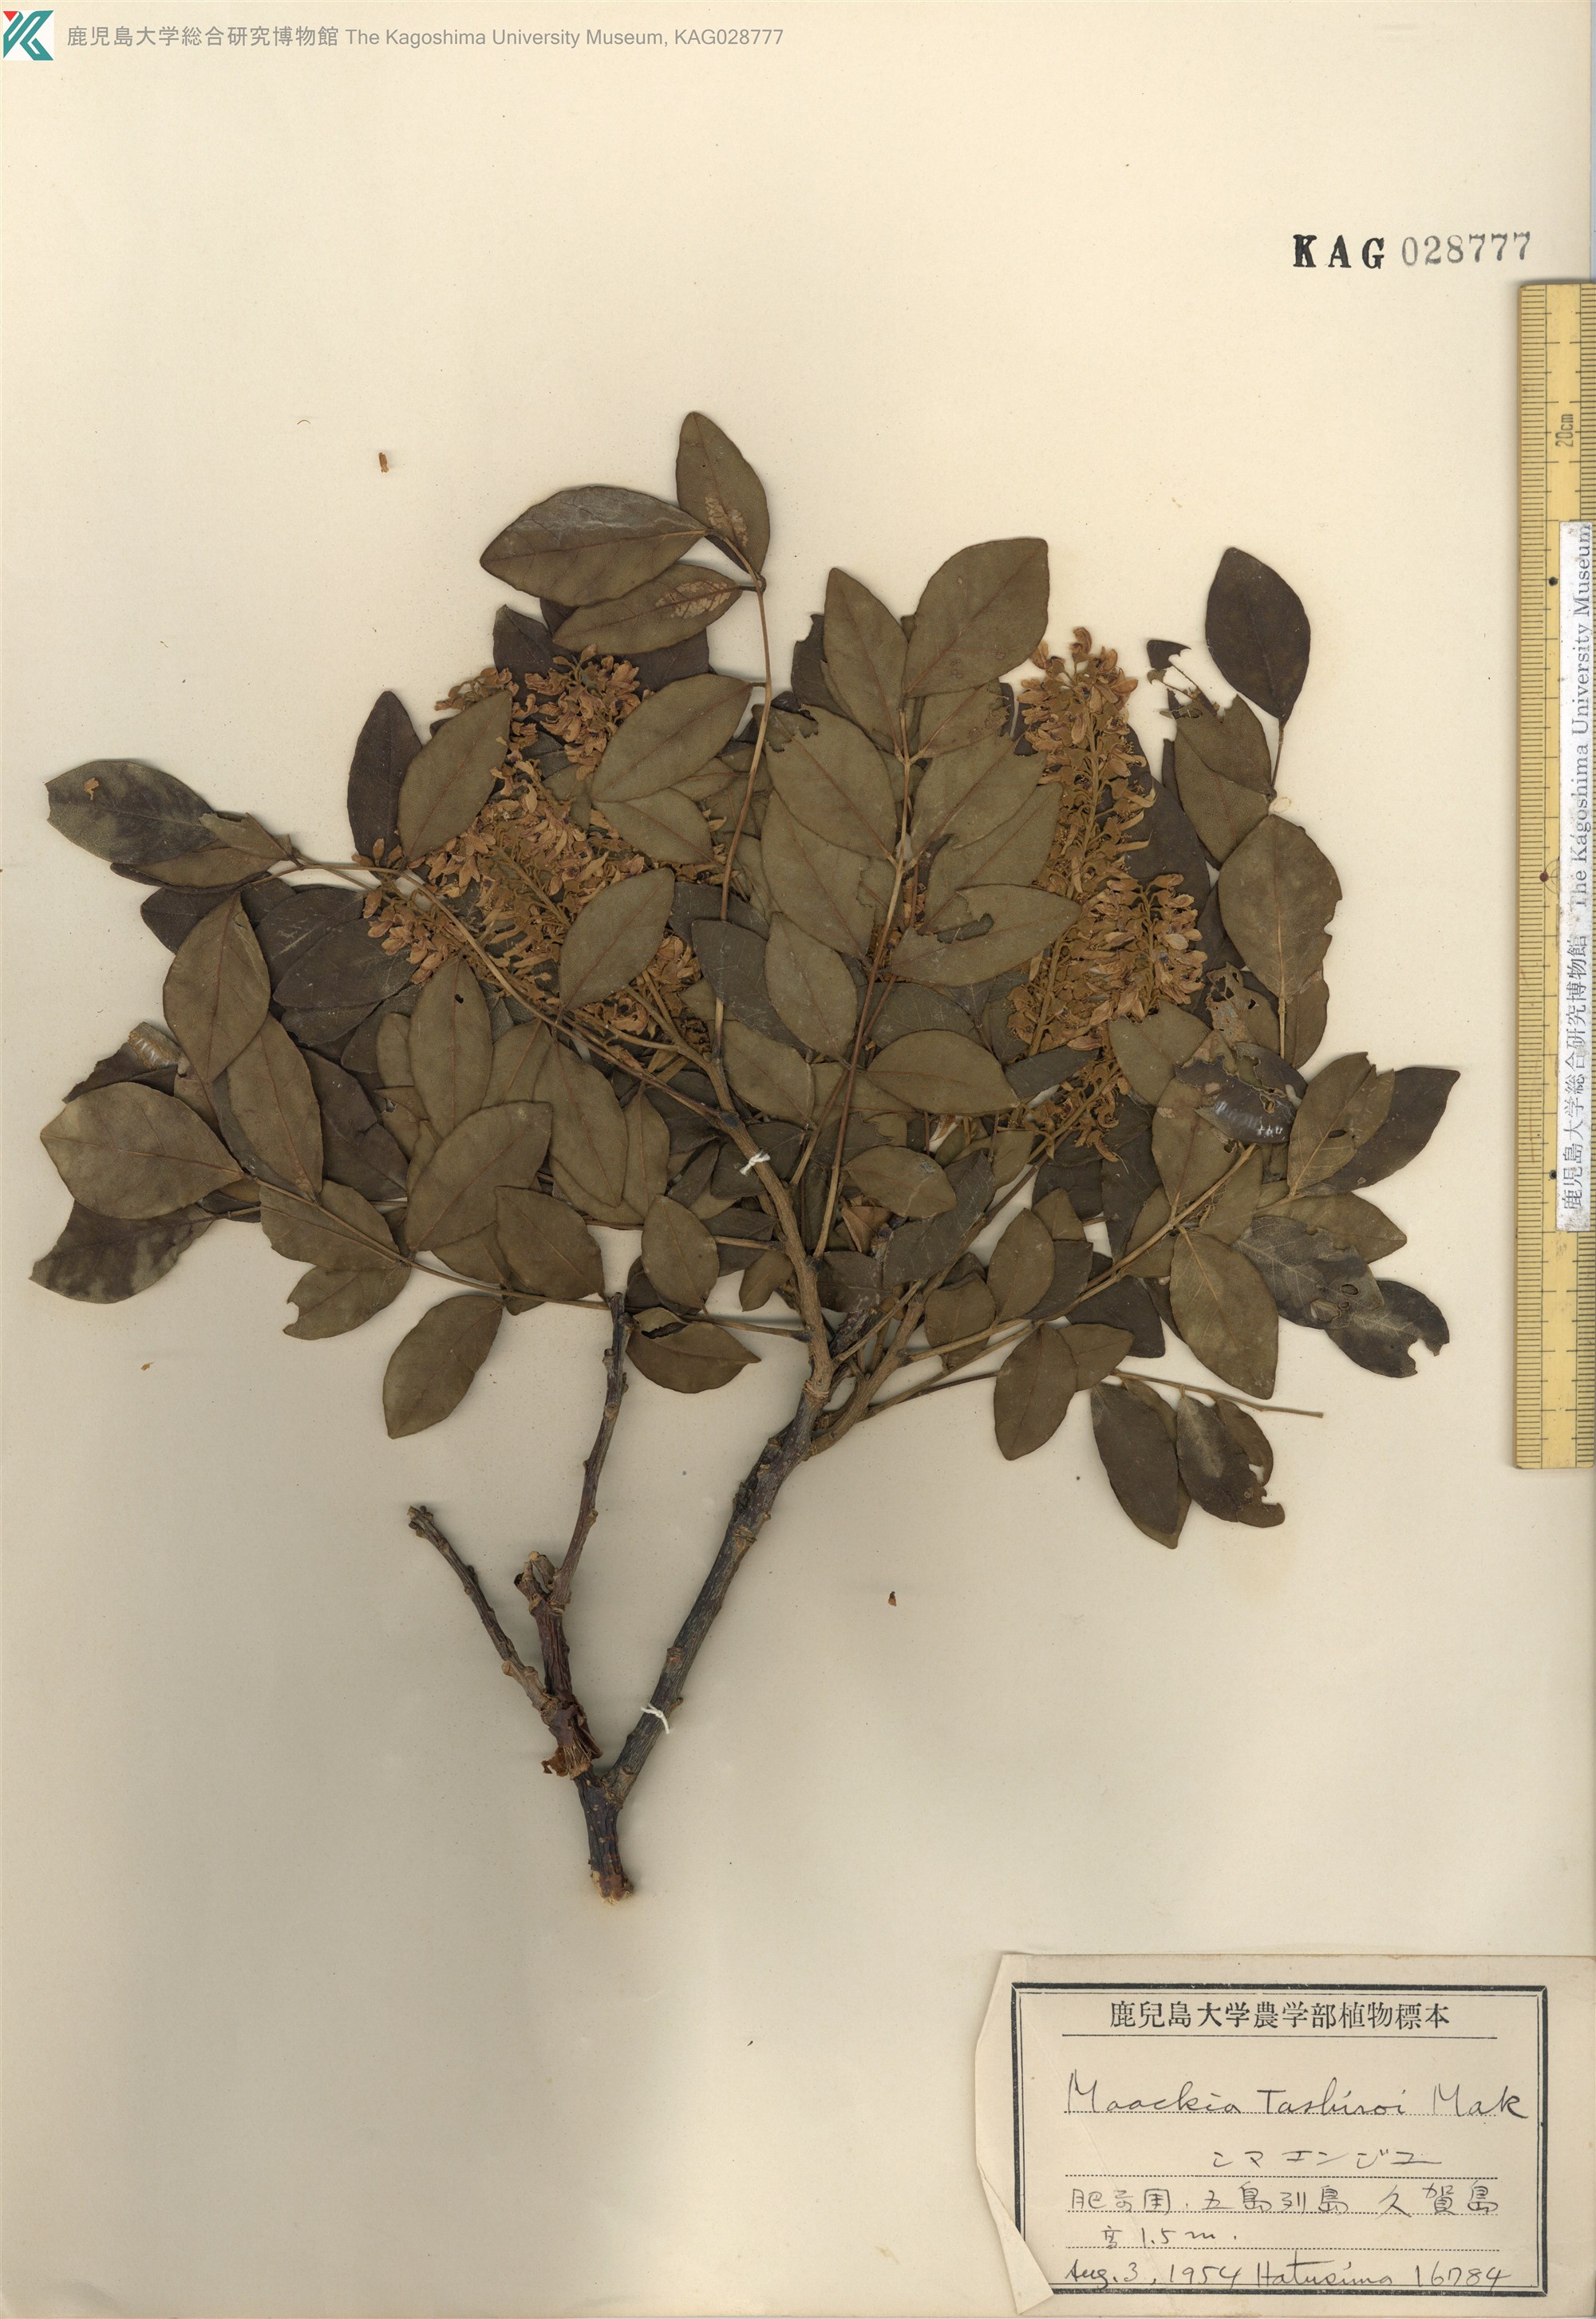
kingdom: Plantae
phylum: Tracheophyta
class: Magnoliopsida
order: Fabales
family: Fabaceae
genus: Maackia
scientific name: Maackia tashiroi
